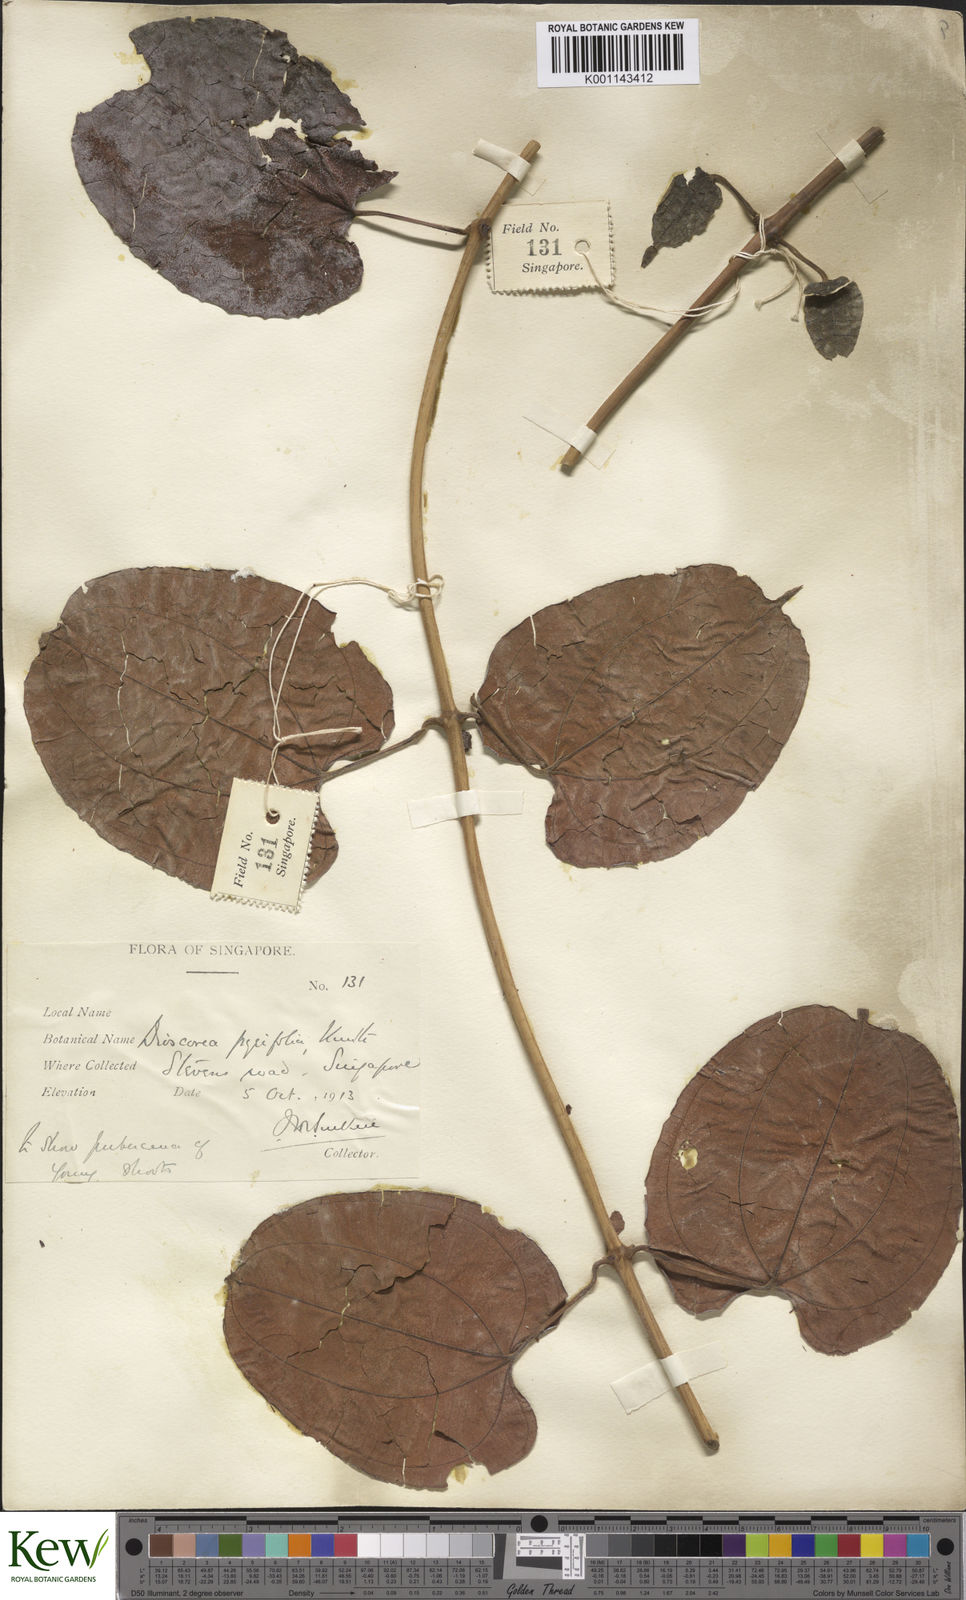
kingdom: Plantae
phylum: Tracheophyta
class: Liliopsida
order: Dioscoreales
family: Dioscoreaceae
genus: Dioscorea
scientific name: Dioscorea pyrifolia
